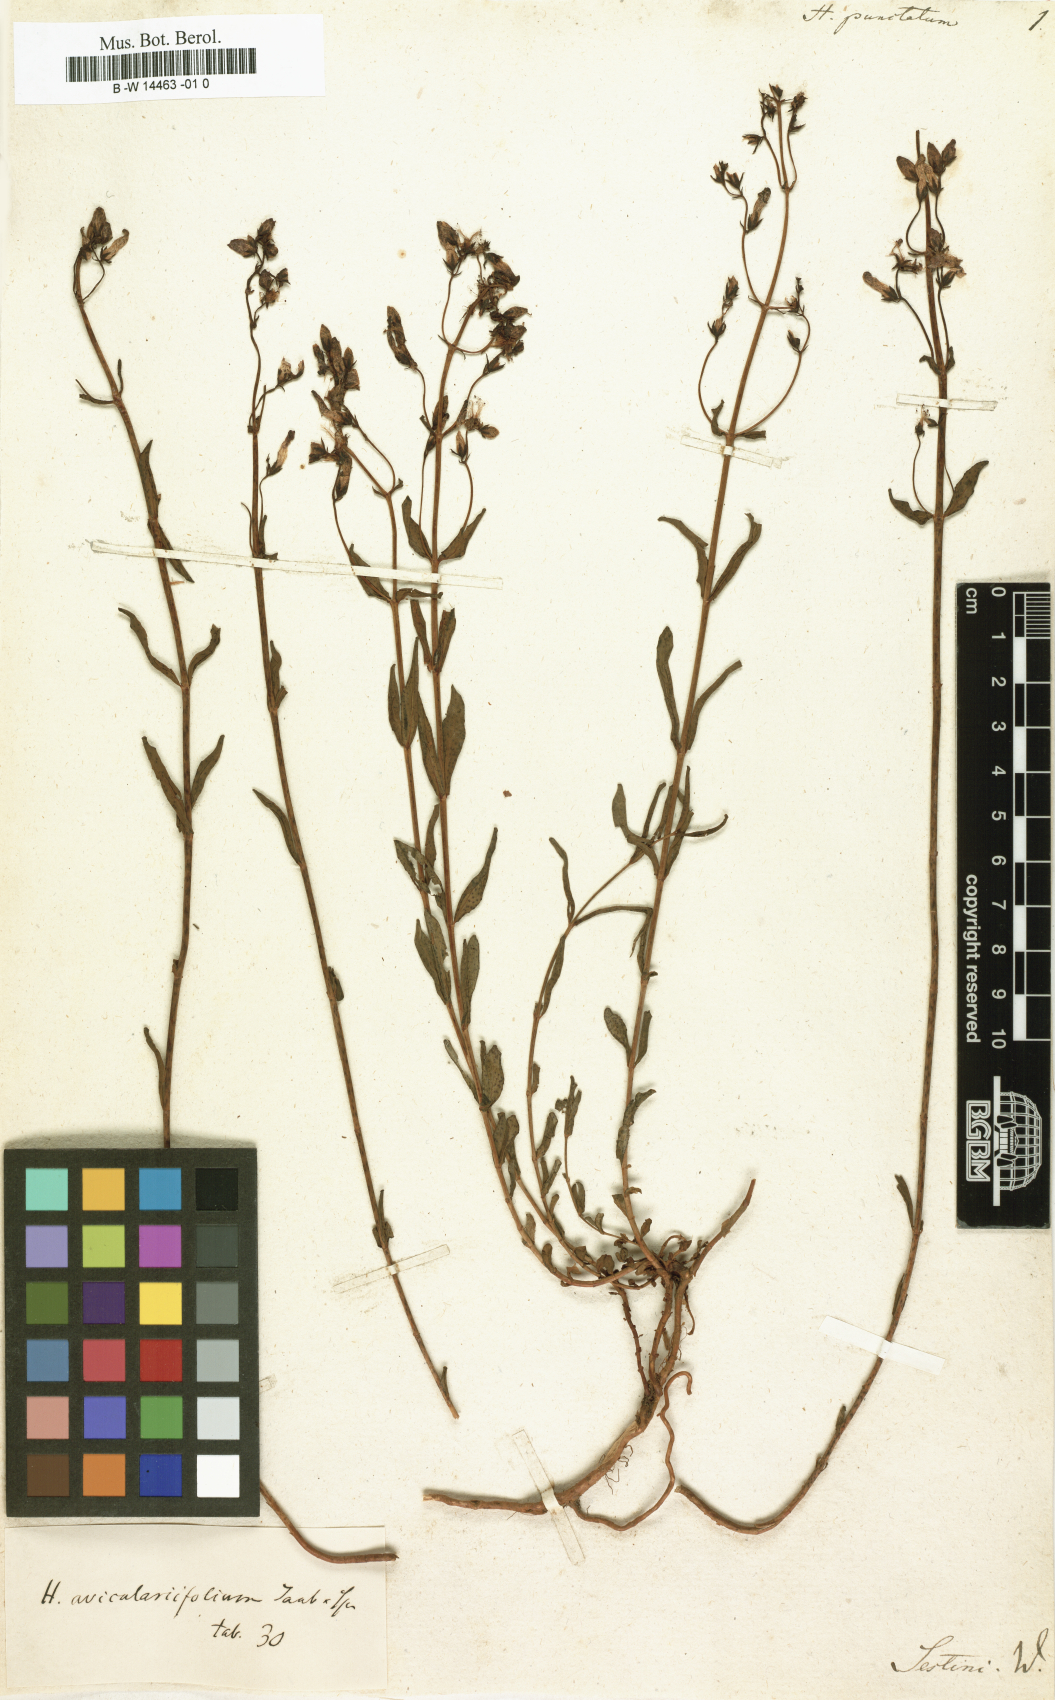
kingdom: Plantae
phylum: Tracheophyta
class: Magnoliopsida
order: Malpighiales
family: Hypericaceae
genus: Hypericum
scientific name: Hypericum punctatum
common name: Spotted st. john's-wort
